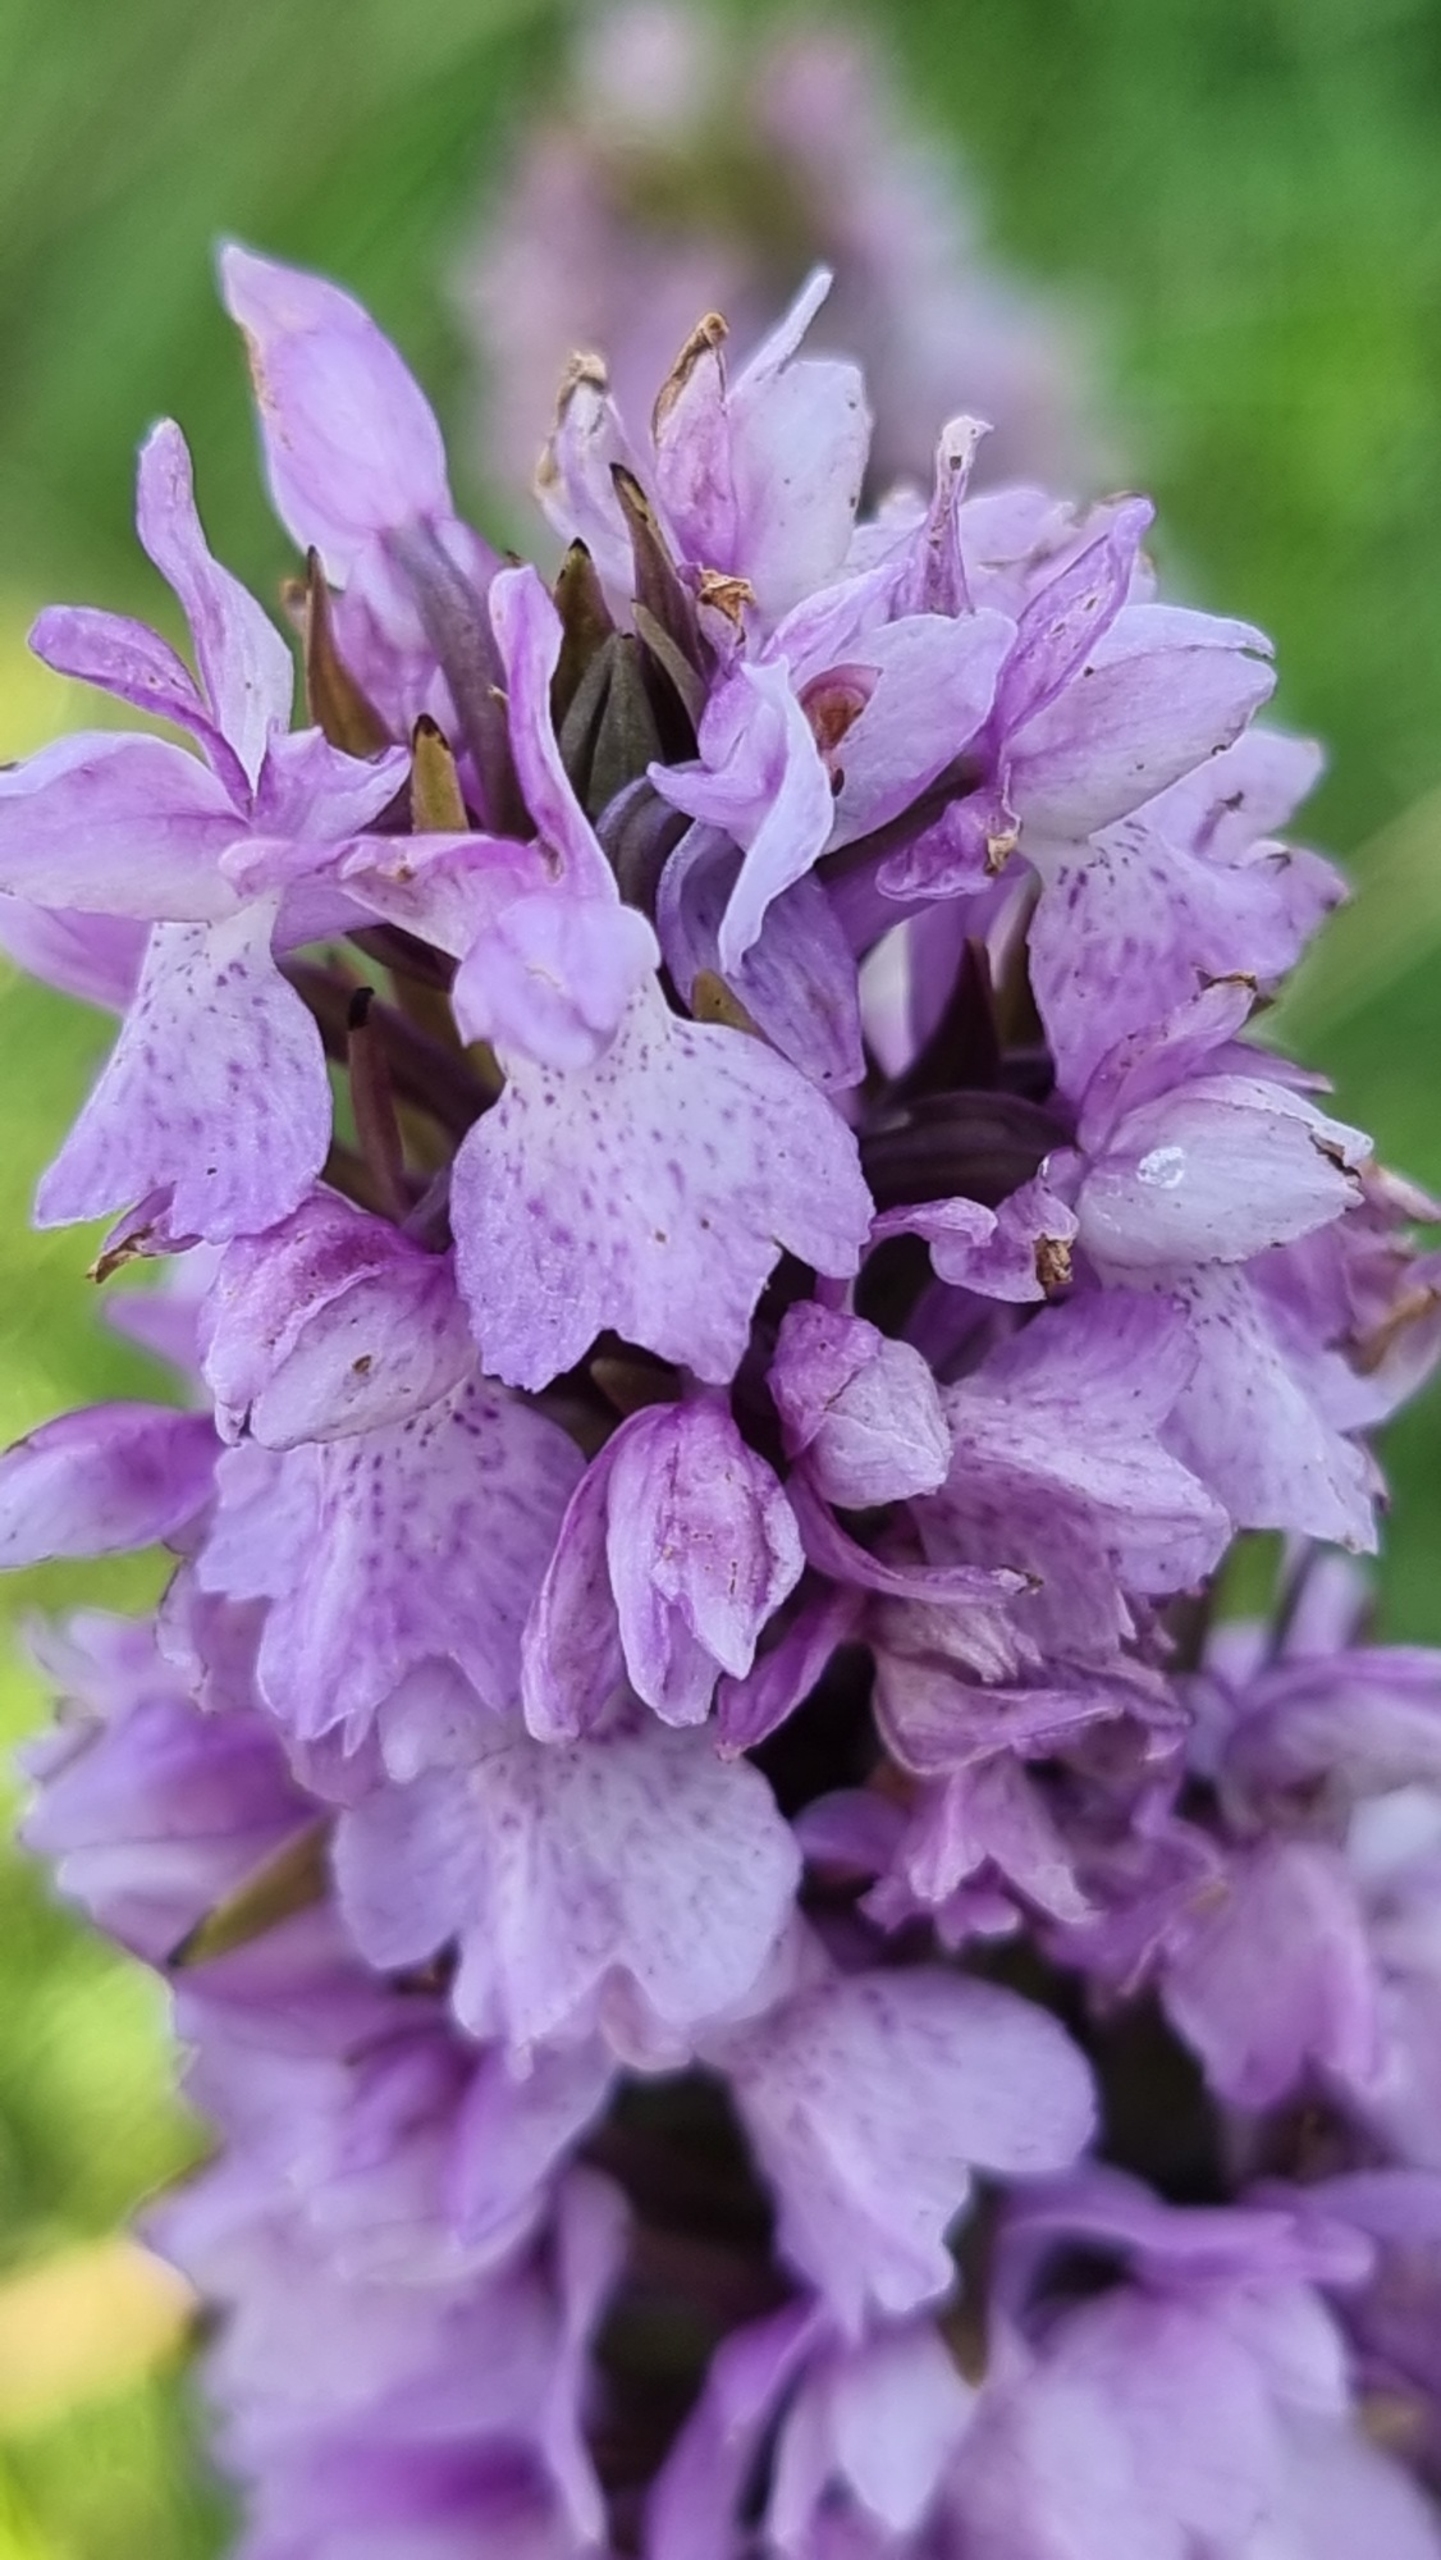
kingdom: Plantae
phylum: Tracheophyta
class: Liliopsida
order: Asparagales
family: Orchidaceae
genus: Dactylorhiza
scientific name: Dactylorhiza majalis
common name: Priklæbet gøgeurt
